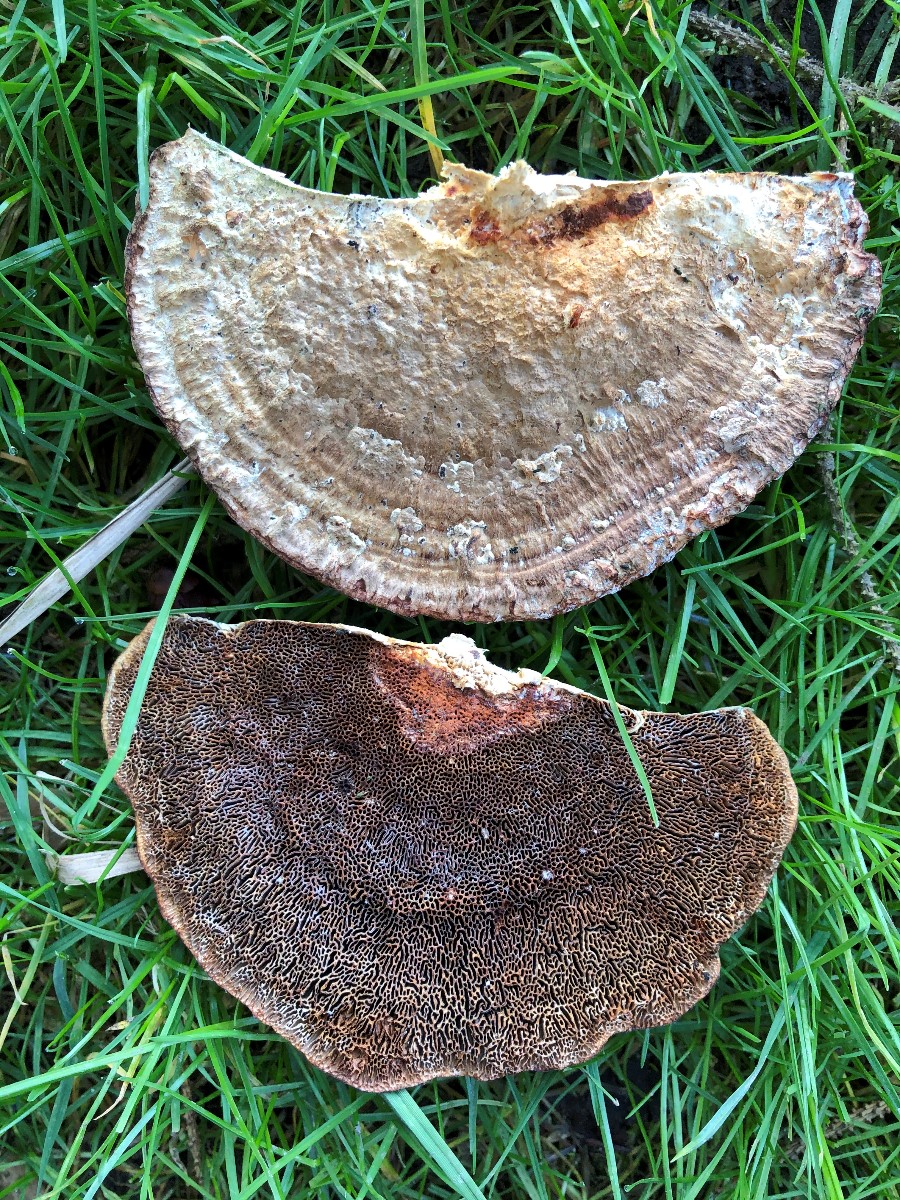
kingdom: Fungi
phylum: Basidiomycota
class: Agaricomycetes
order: Polyporales
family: Polyporaceae
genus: Daedaleopsis
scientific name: Daedaleopsis confragosa
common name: rødmende læderporesvamp
